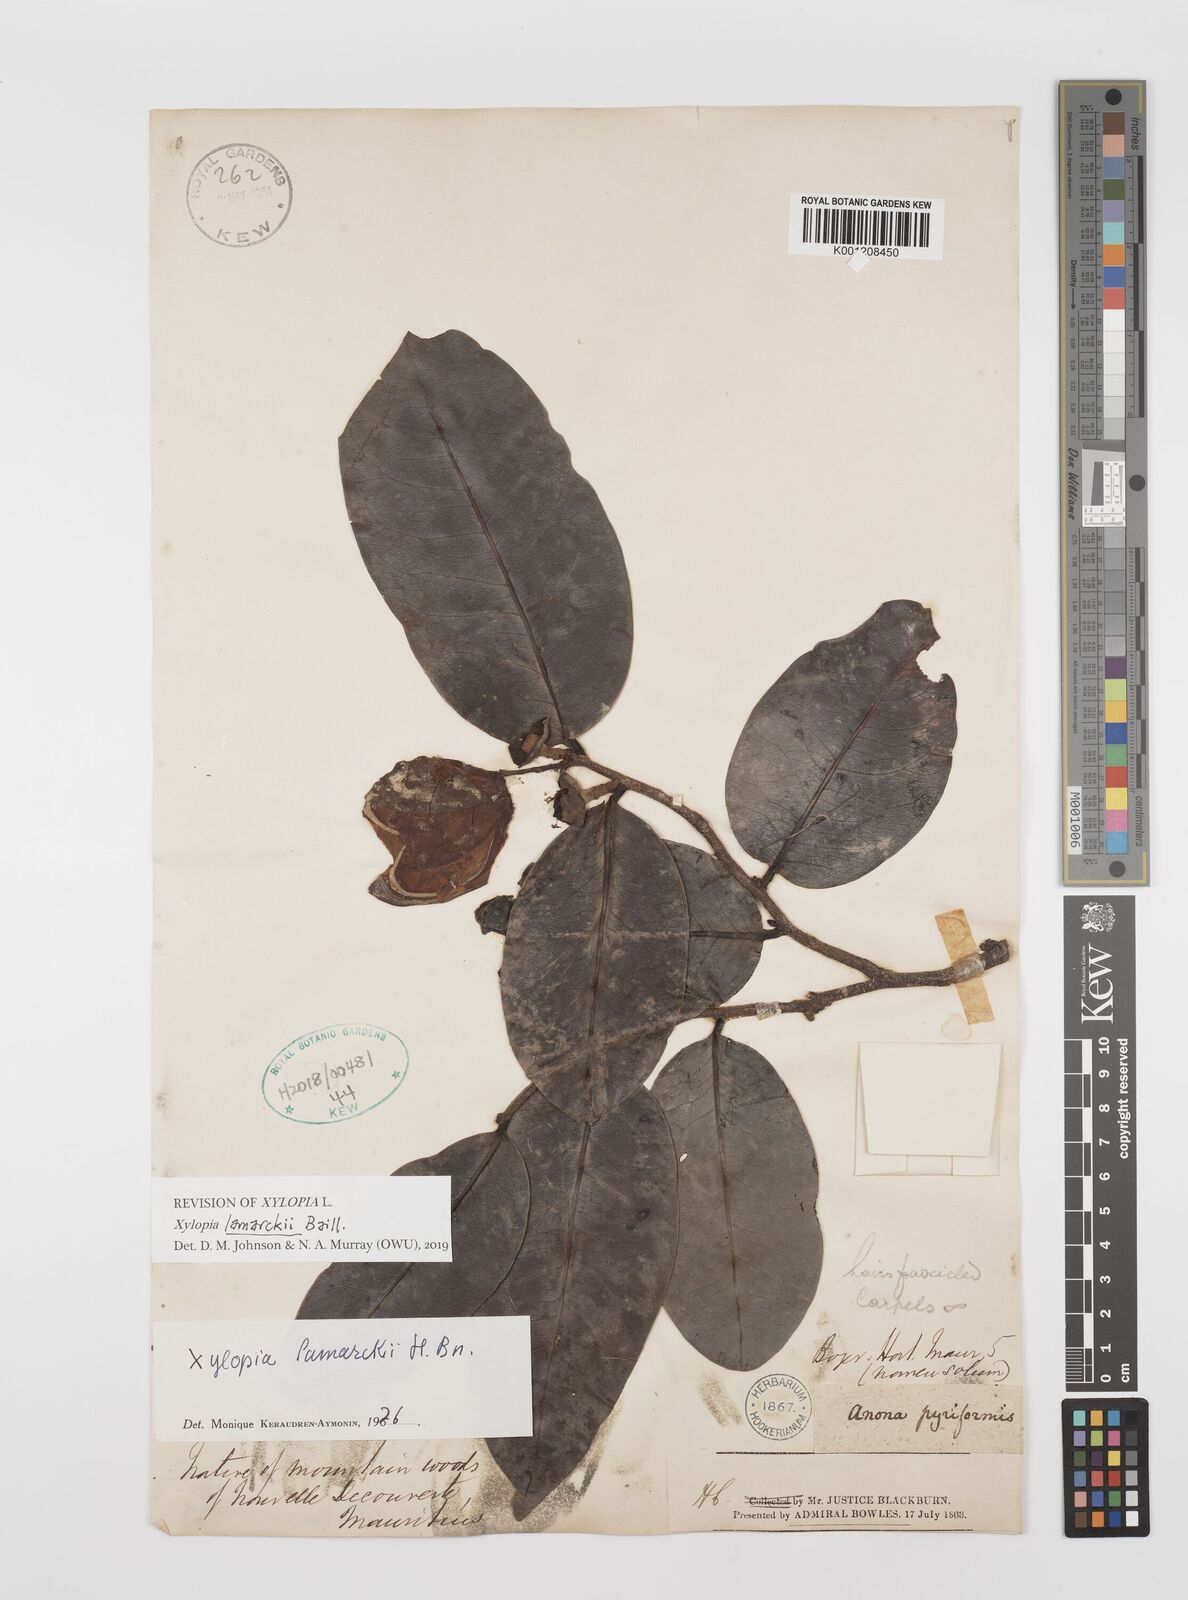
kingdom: Plantae
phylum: Tracheophyta
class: Magnoliopsida
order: Magnoliales
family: Annonaceae
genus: Xylopia
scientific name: Xylopia lamarckii
